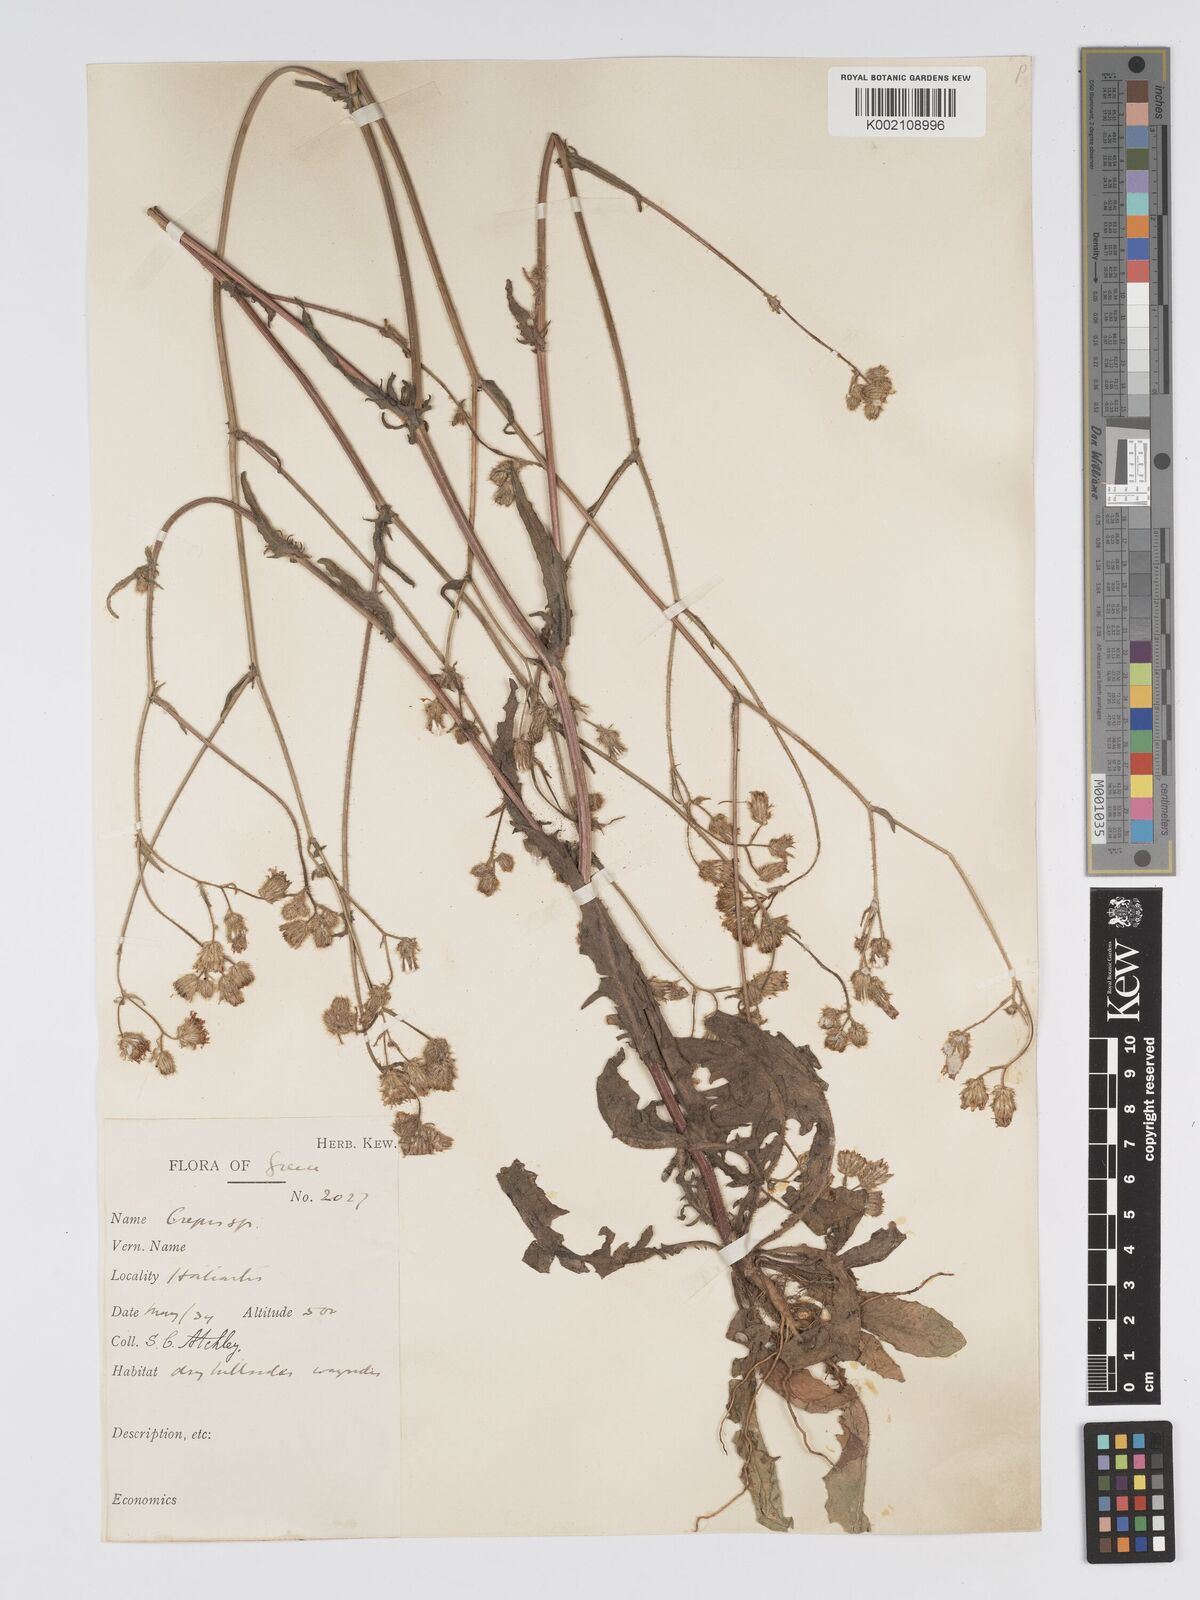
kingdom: Plantae
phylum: Tracheophyta
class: Magnoliopsida
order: Asterales
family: Asteraceae
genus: Crepis
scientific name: Crepis setosa
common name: Bristly hawk's-beard
